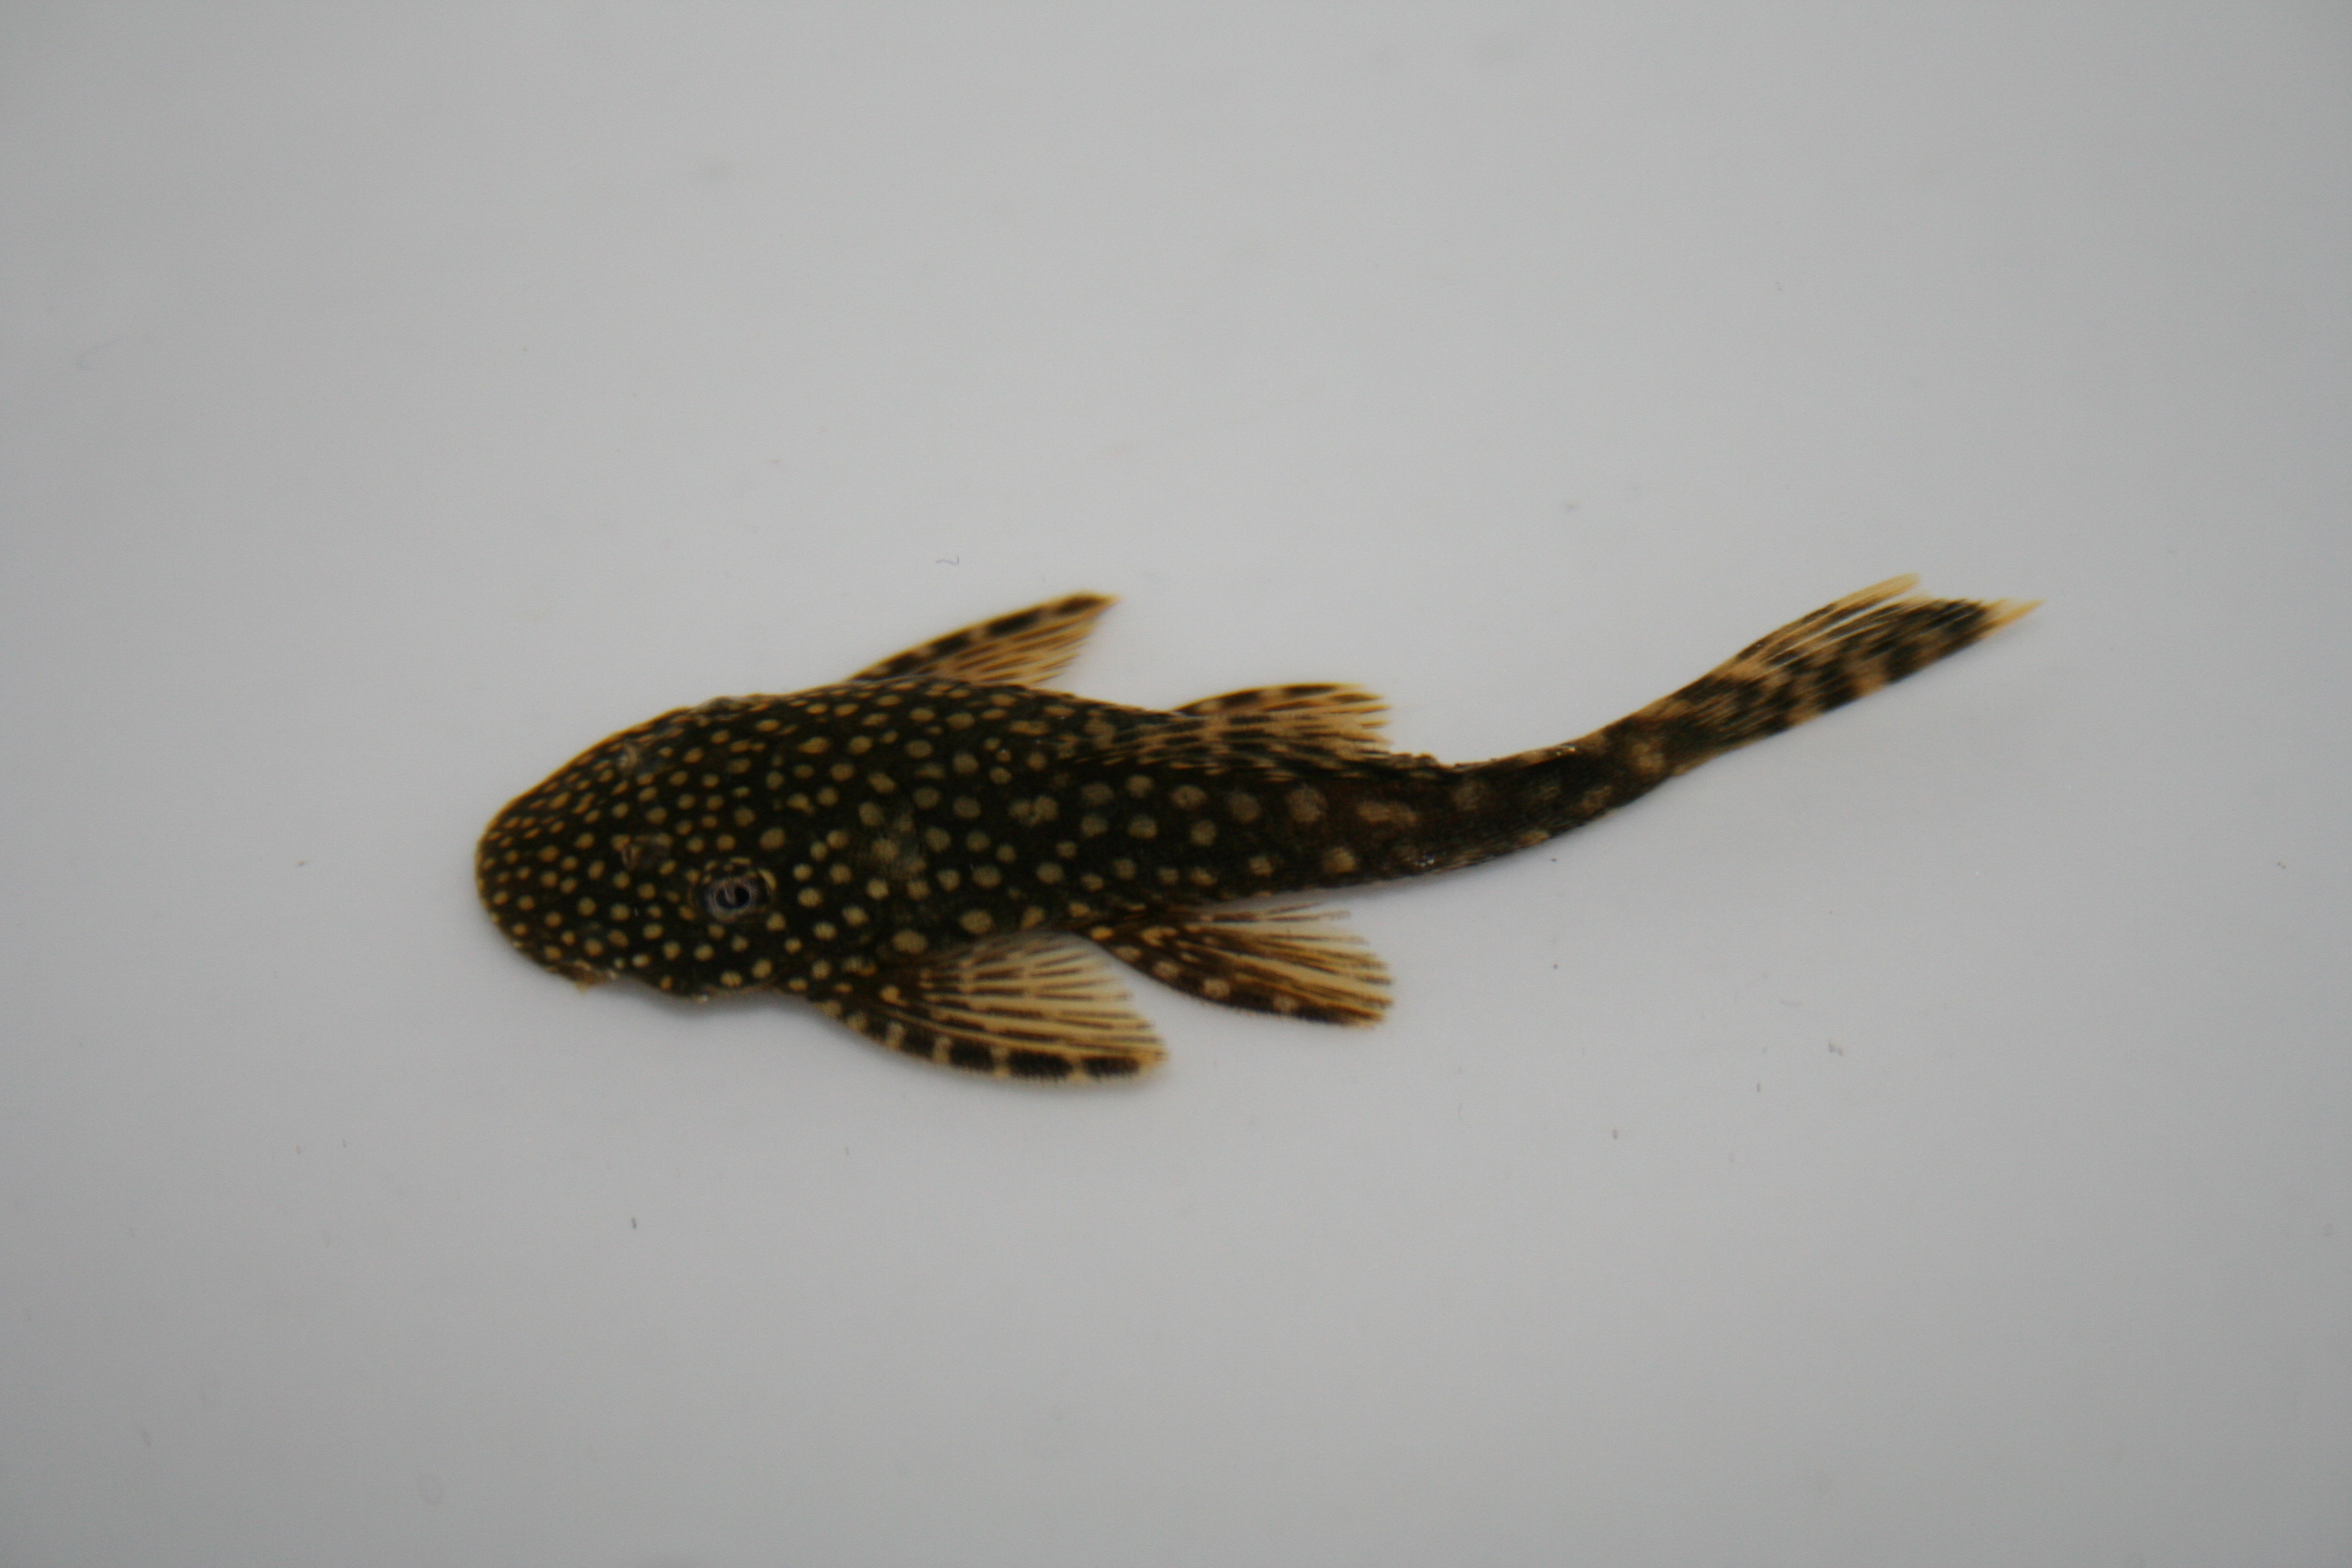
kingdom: Animalia
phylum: Chordata
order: Siluriformes
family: Loricariidae
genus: Ancistrus
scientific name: Ancistrus
